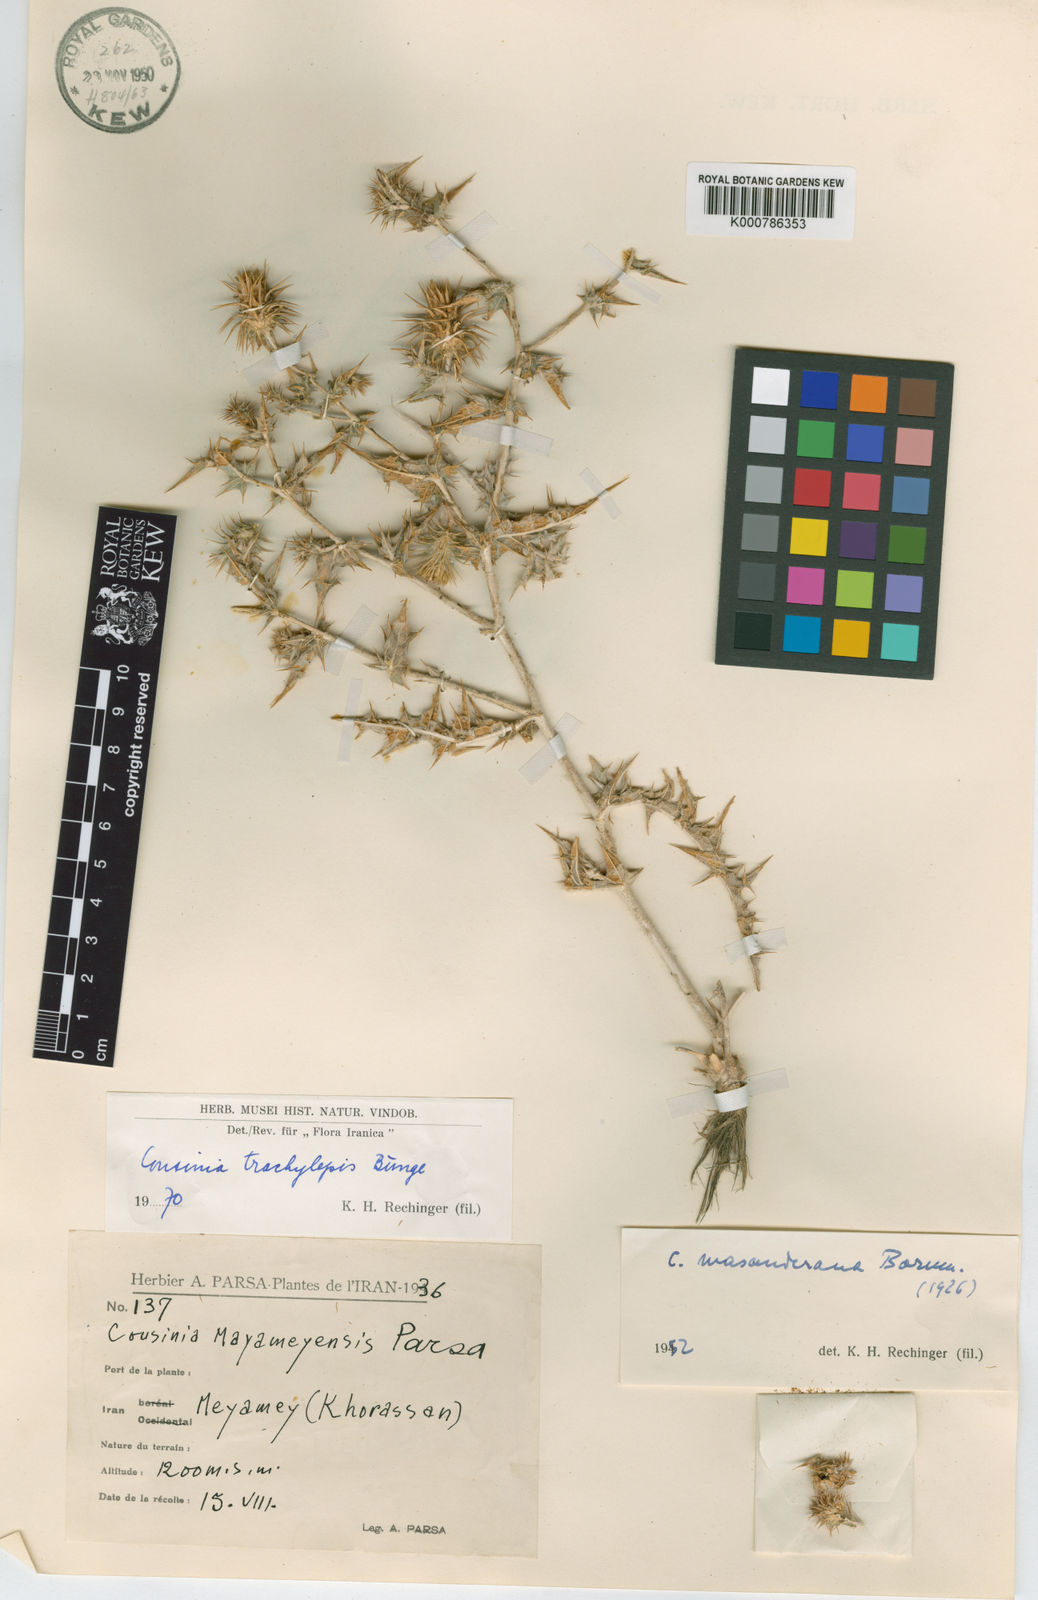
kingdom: Plantae
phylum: Tracheophyta
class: Magnoliopsida
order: Asterales
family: Asteraceae
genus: Cousinia
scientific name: Cousinia trachylepis
